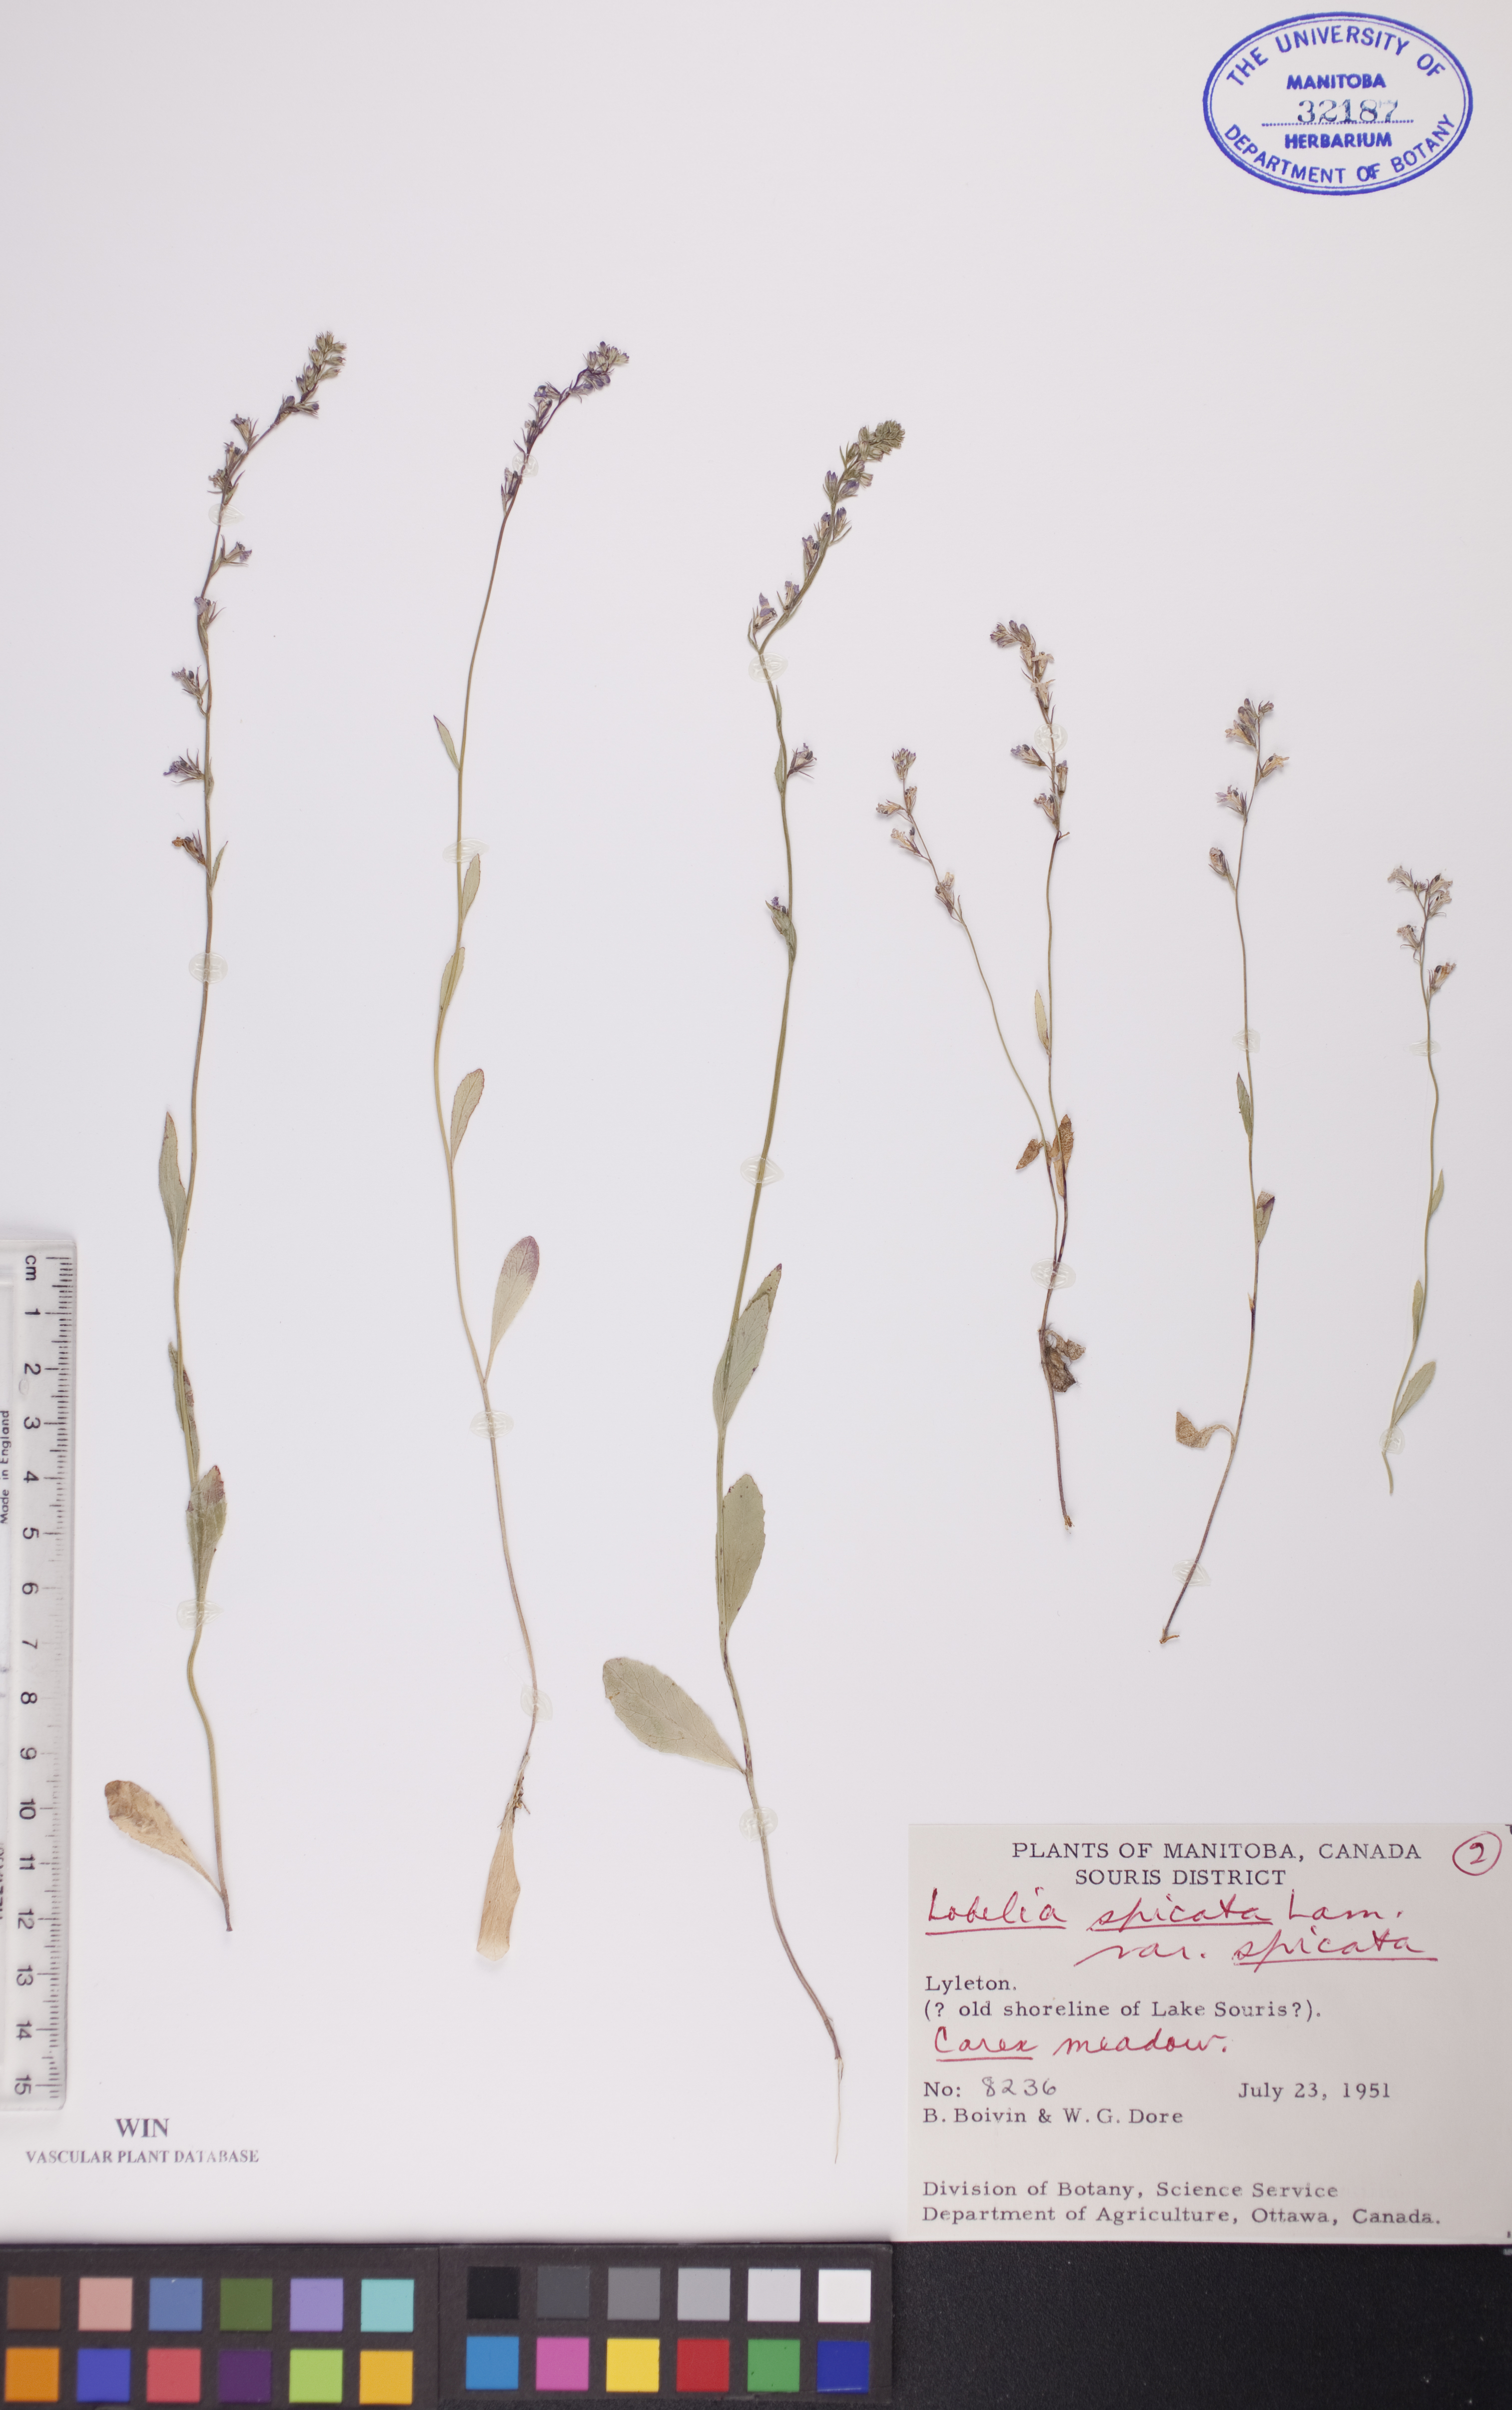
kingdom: Plantae
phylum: Tracheophyta
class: Magnoliopsida
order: Asterales
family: Campanulaceae
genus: Lobelia
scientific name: Lobelia spicata
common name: Pale-spike lobelia
